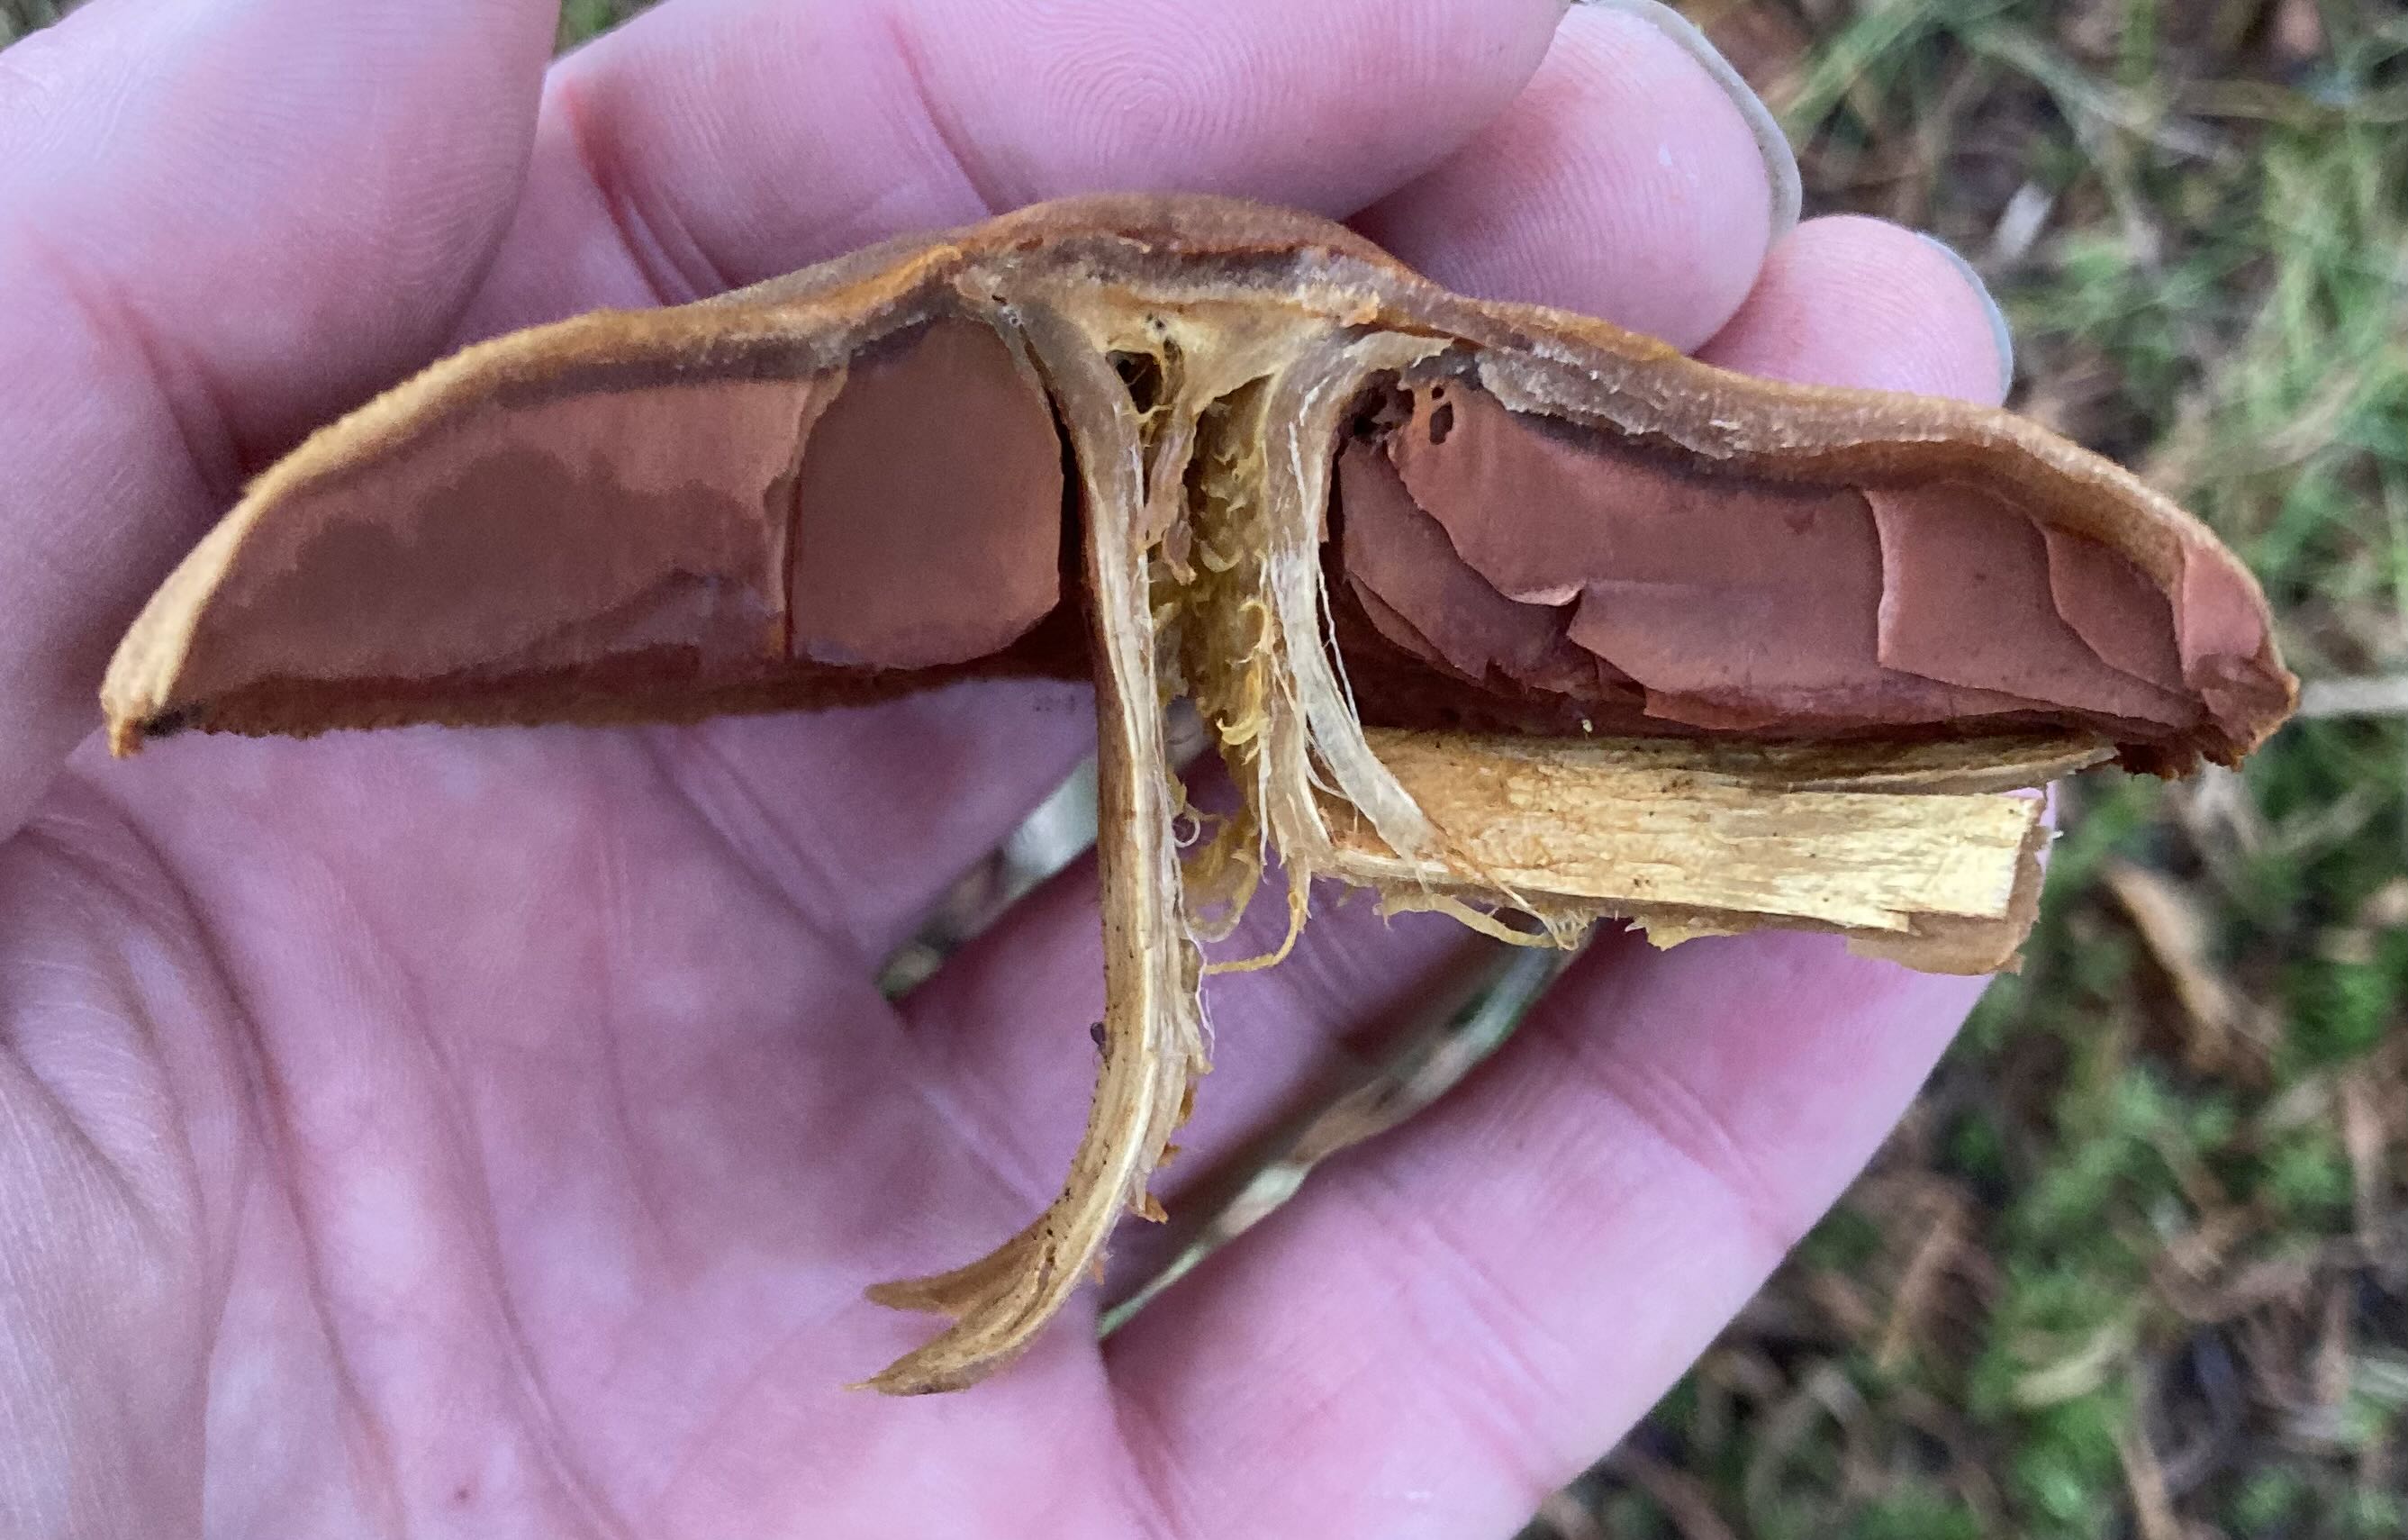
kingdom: Fungi
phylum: Basidiomycota
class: Agaricomycetes
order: Agaricales
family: Cortinariaceae
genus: Cortinarius
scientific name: Cortinarius
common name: cinnoberbladet slørhat
